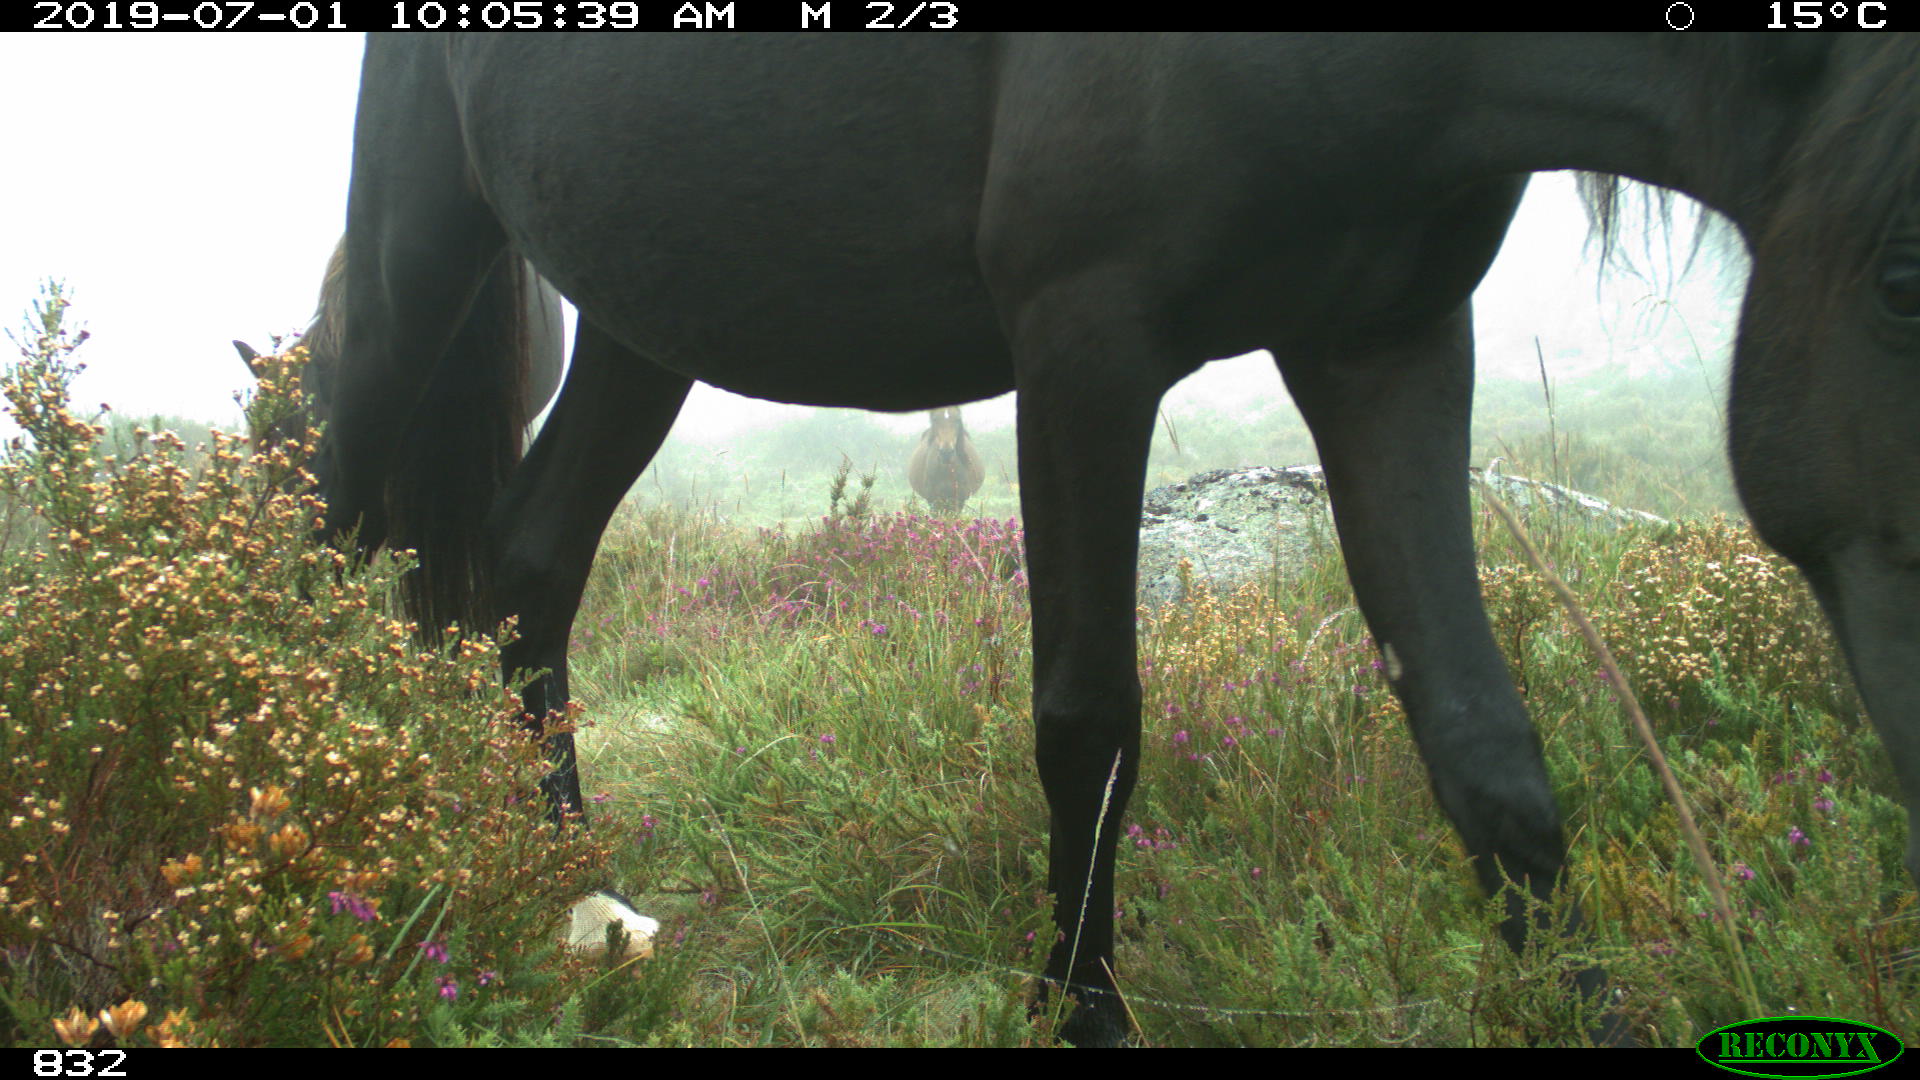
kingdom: Animalia
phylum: Chordata
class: Mammalia
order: Perissodactyla
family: Equidae
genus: Equus
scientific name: Equus caballus
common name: Horse
